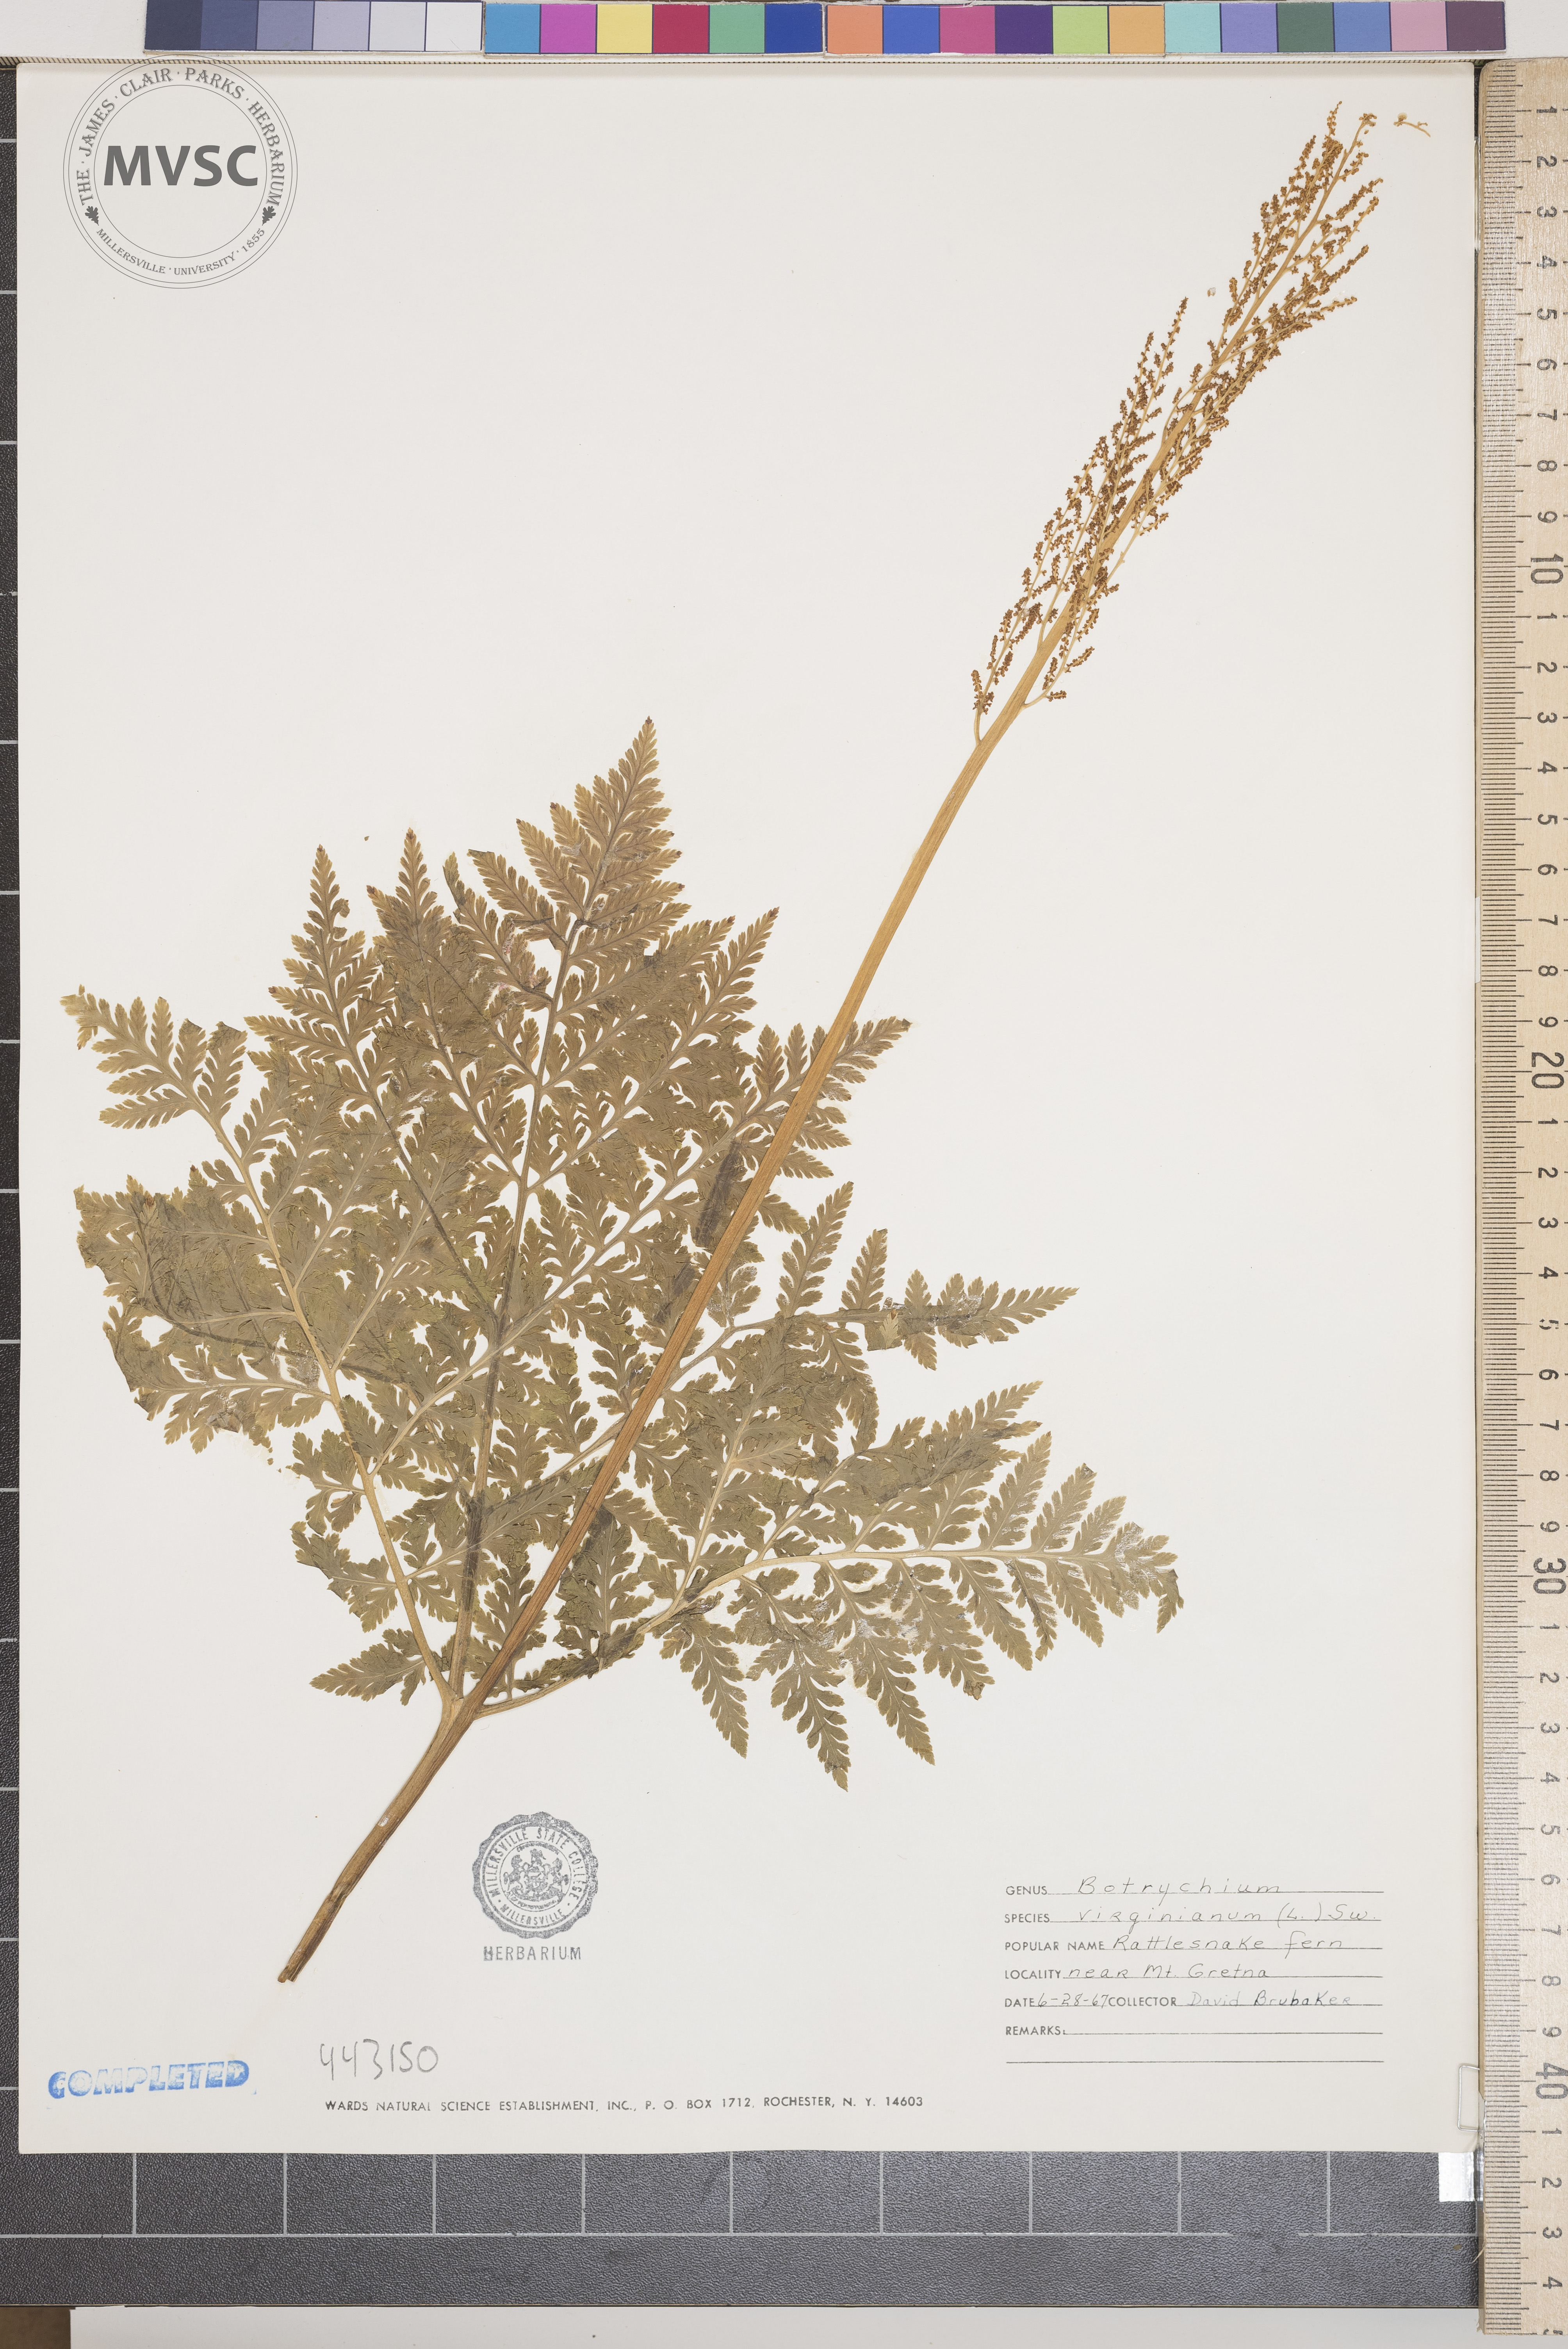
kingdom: Plantae
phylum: Tracheophyta
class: Polypodiopsida
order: Ophioglossales
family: Ophioglossaceae
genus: Botrypus
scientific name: Botrypus virginianus
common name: Common grapefern
